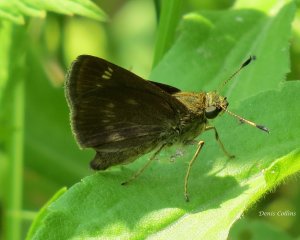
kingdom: Animalia
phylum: Arthropoda
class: Insecta
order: Lepidoptera
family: Hesperiidae
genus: Polites
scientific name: Polites
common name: Crossline Skipper
